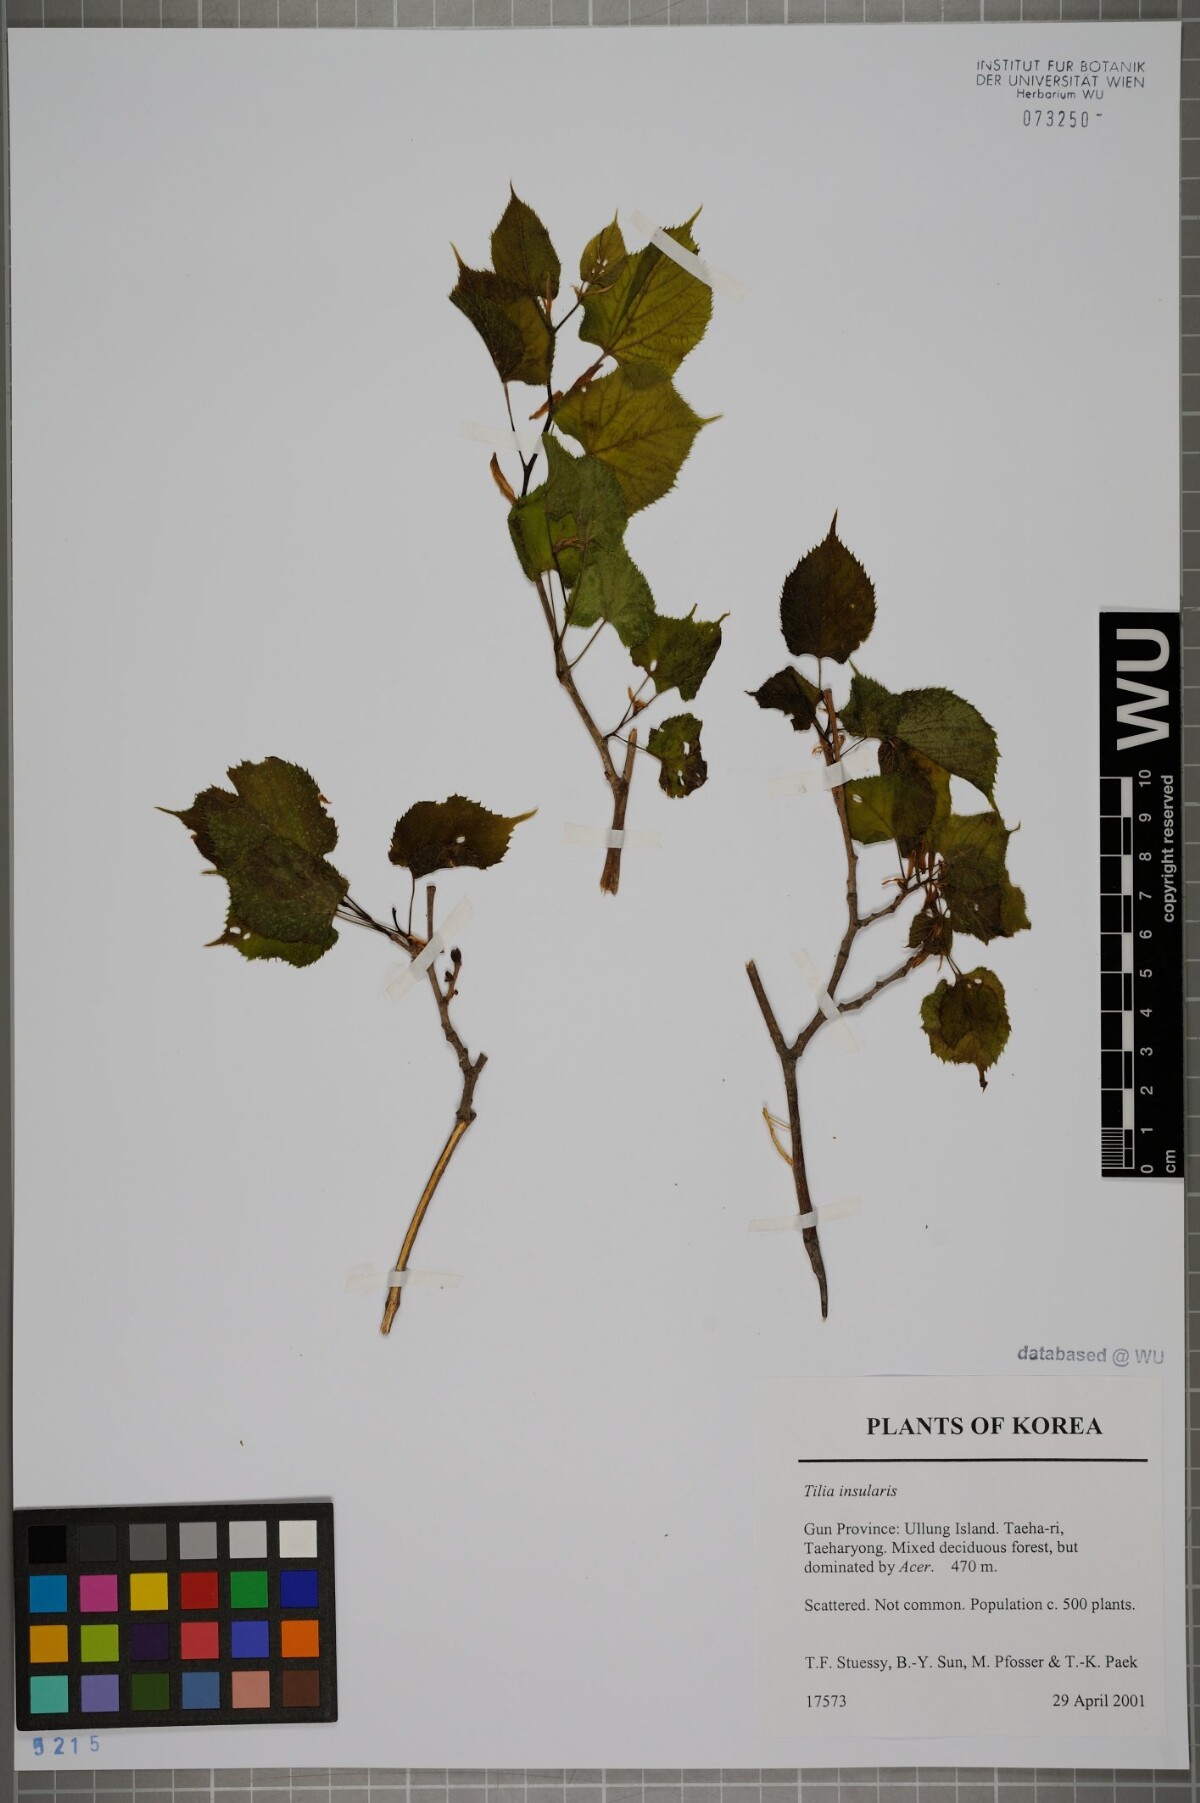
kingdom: Plantae
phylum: Tracheophyta
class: Magnoliopsida
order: Malvales
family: Malvaceae
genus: Tilia
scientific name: Tilia amurensis
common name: Amur lime
